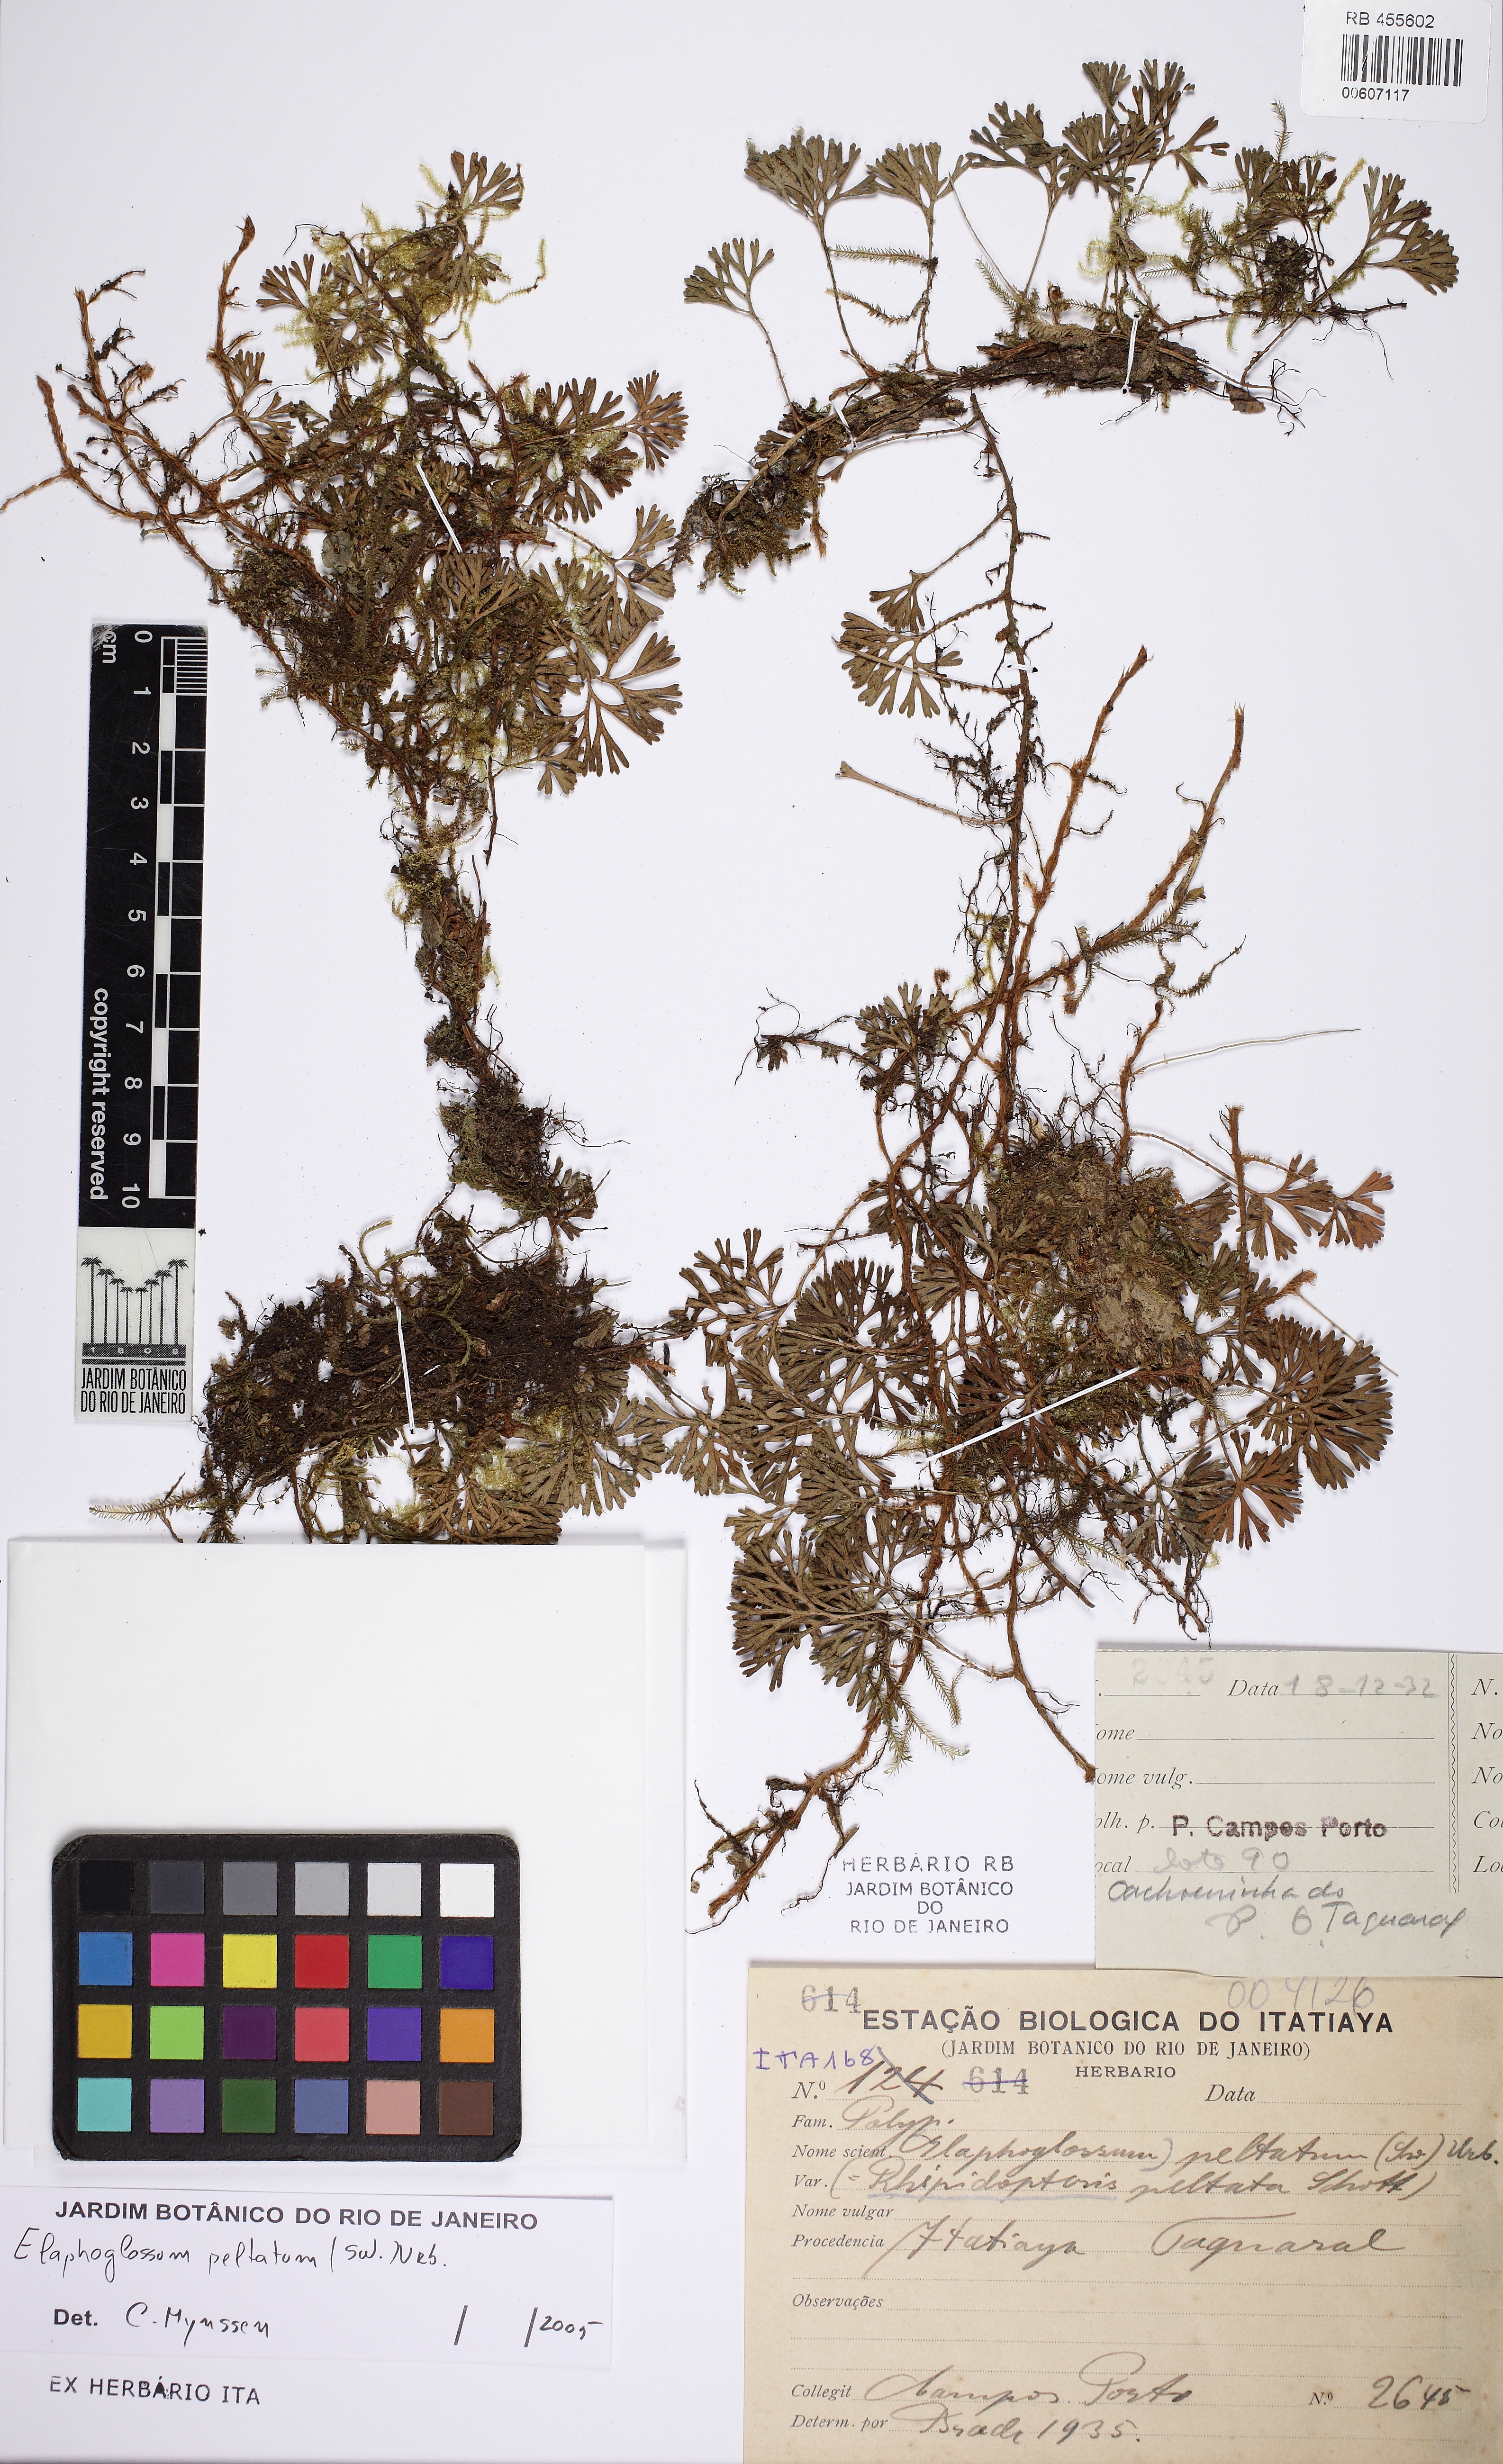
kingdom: Plantae
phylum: Tracheophyta
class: Polypodiopsida
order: Polypodiales
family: Dryopteridaceae
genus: Elaphoglossum
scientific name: Elaphoglossum peltatum
